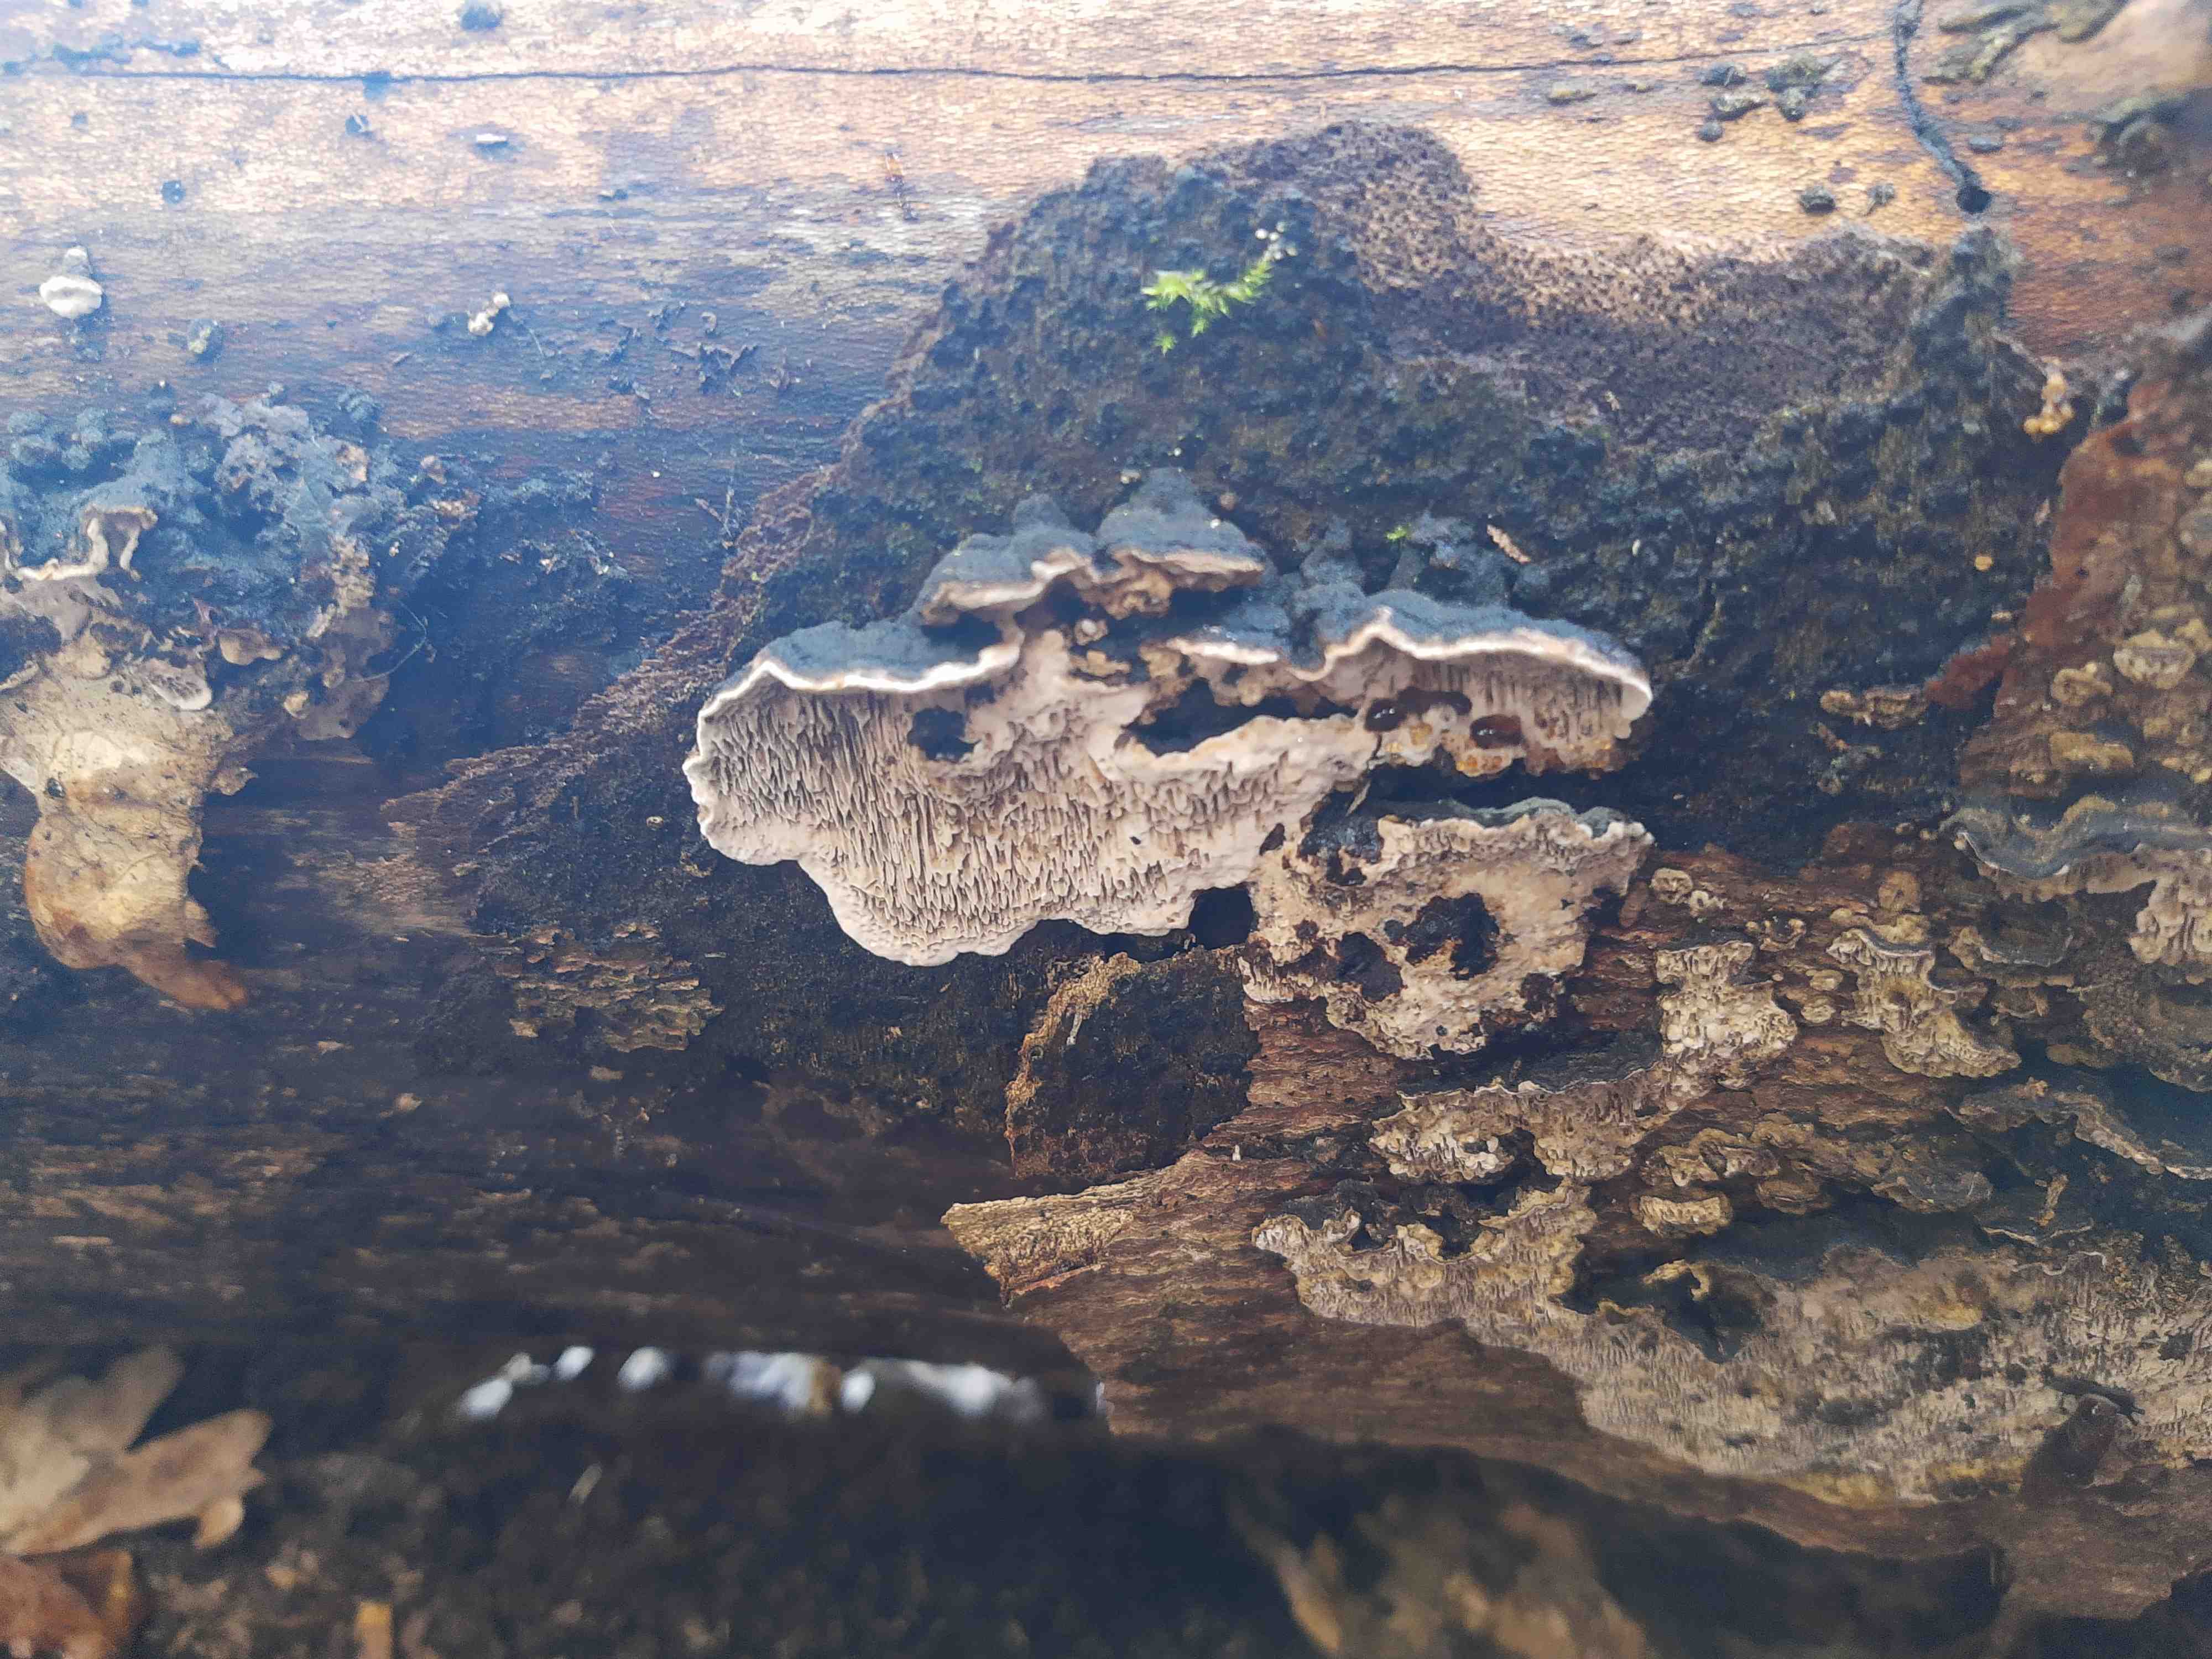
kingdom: Fungi
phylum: Basidiomycota
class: Agaricomycetes
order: Polyporales
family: Polyporaceae
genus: Podofomes
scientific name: Podofomes mollis
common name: blød begporesvamp
